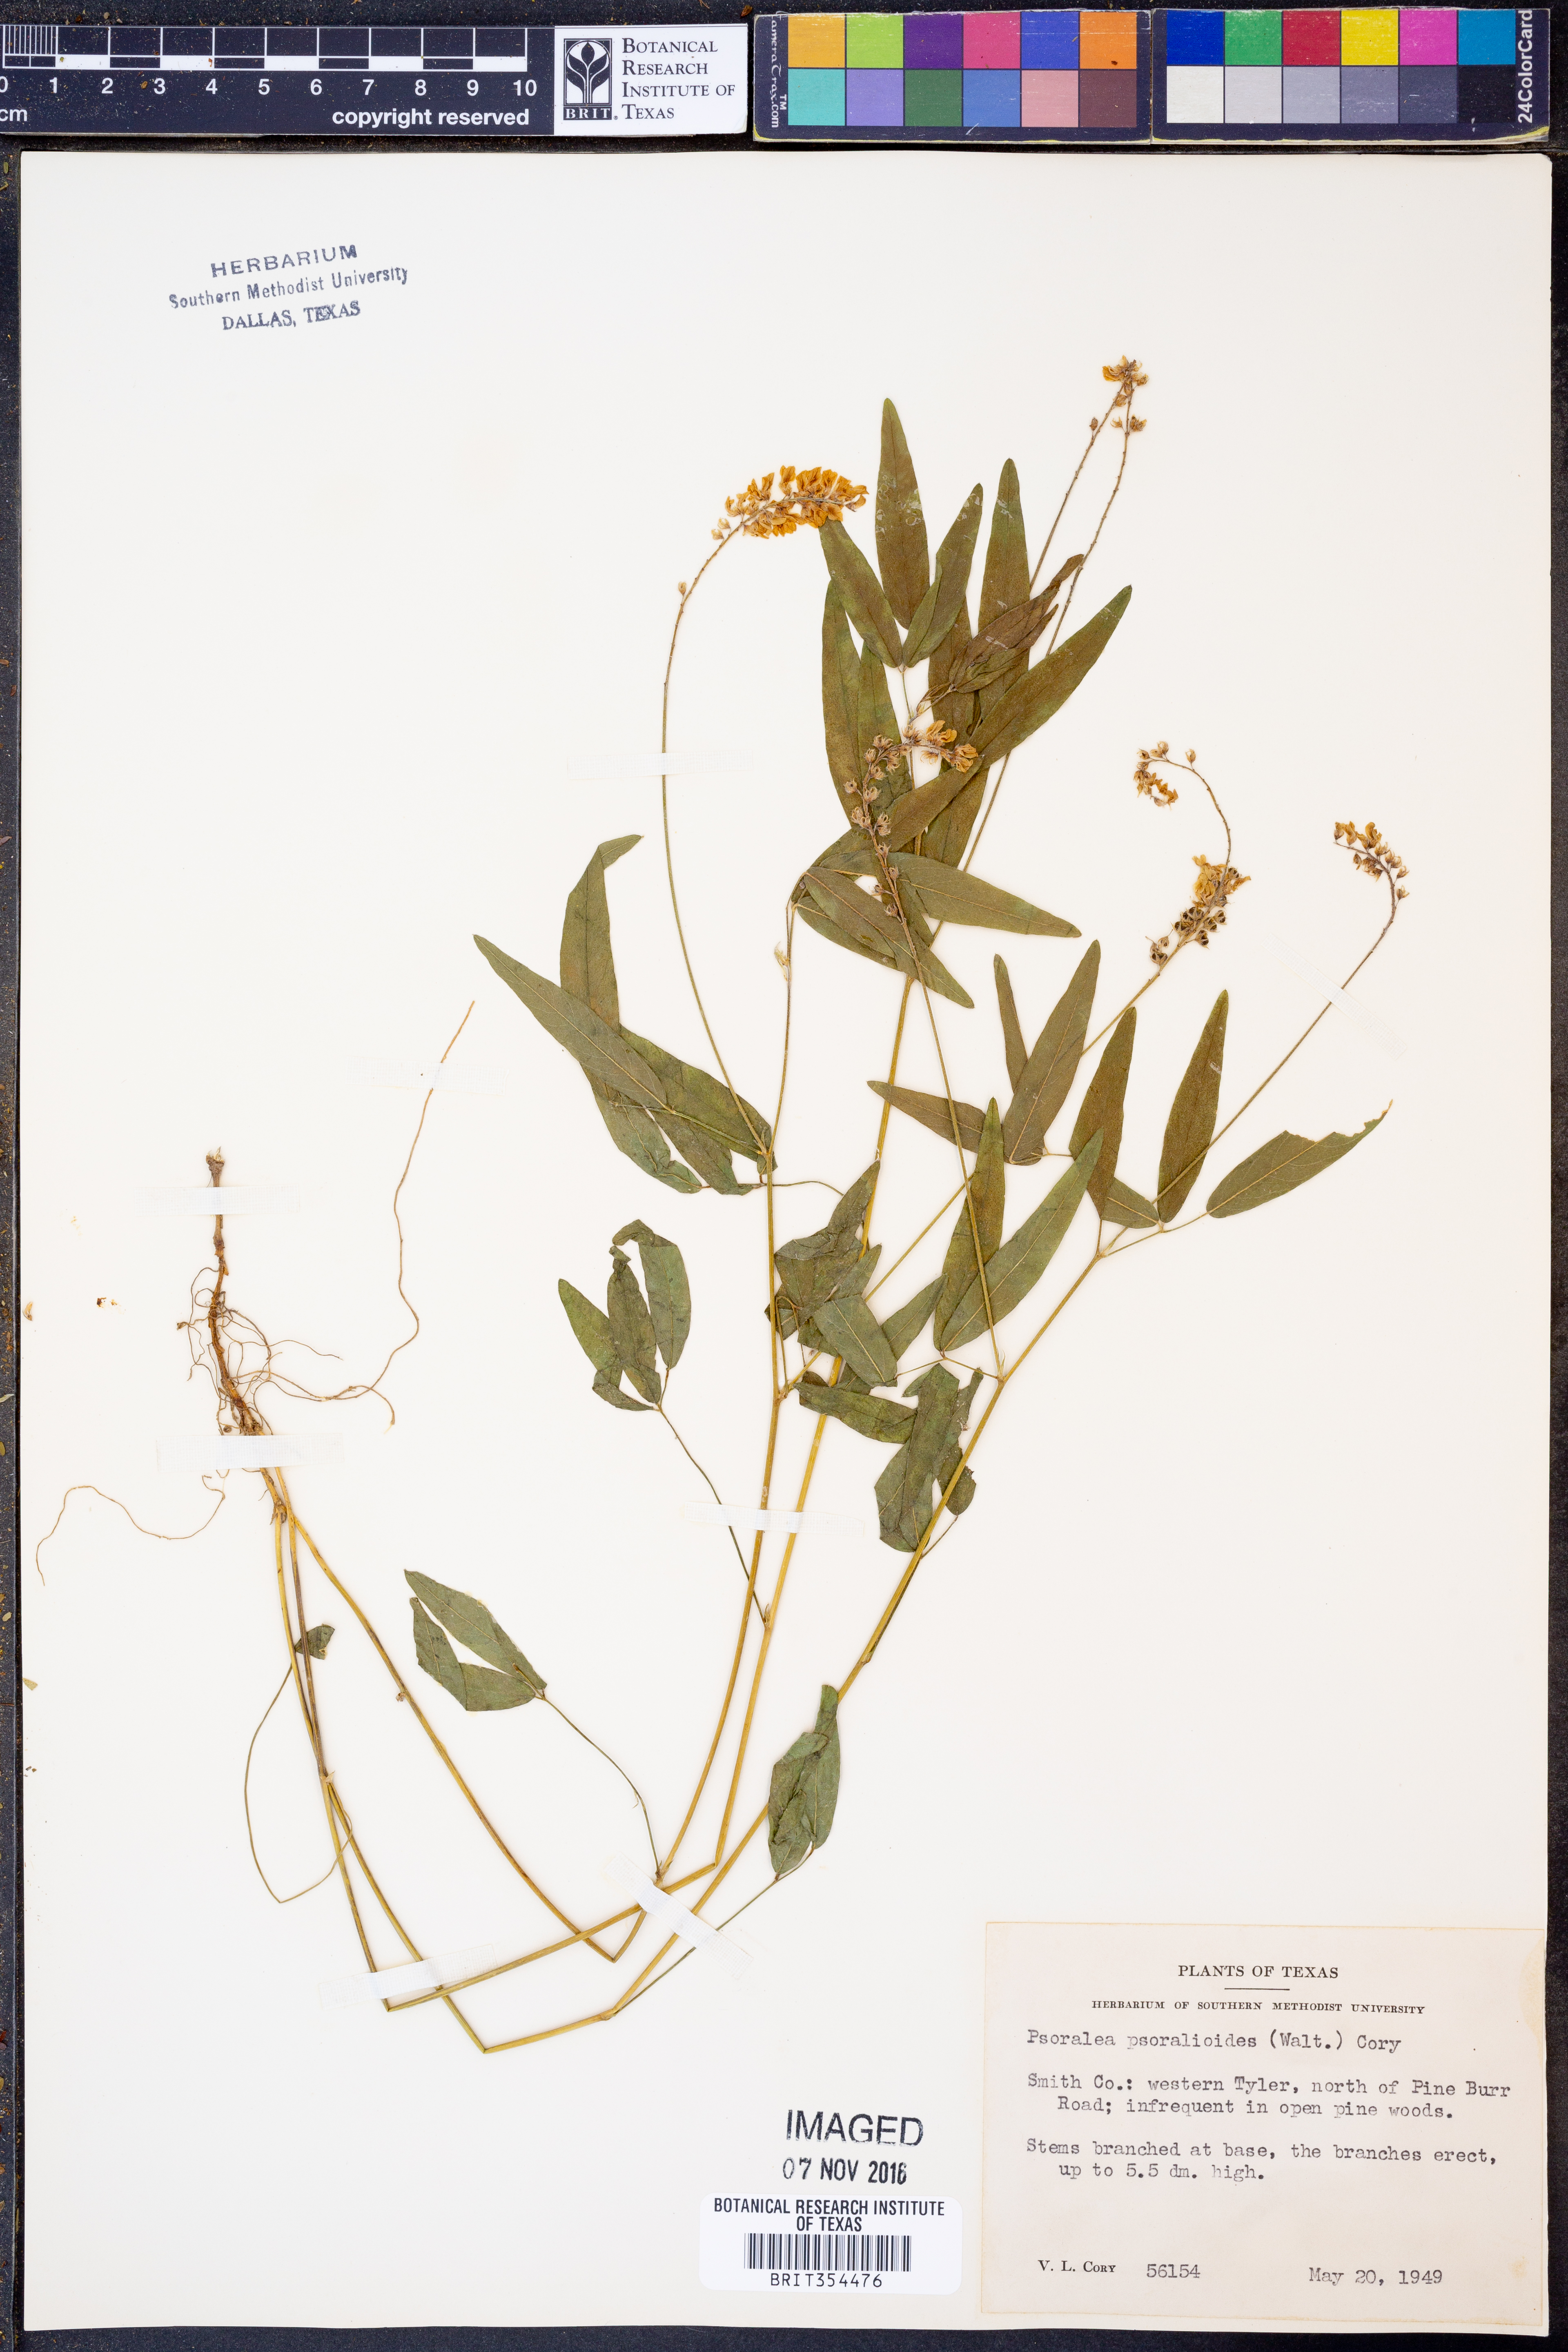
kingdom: Plantae
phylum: Tracheophyta
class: Magnoliopsida
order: Fabales
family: Fabaceae
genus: Orbexilum
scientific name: Orbexilum psoralioides
